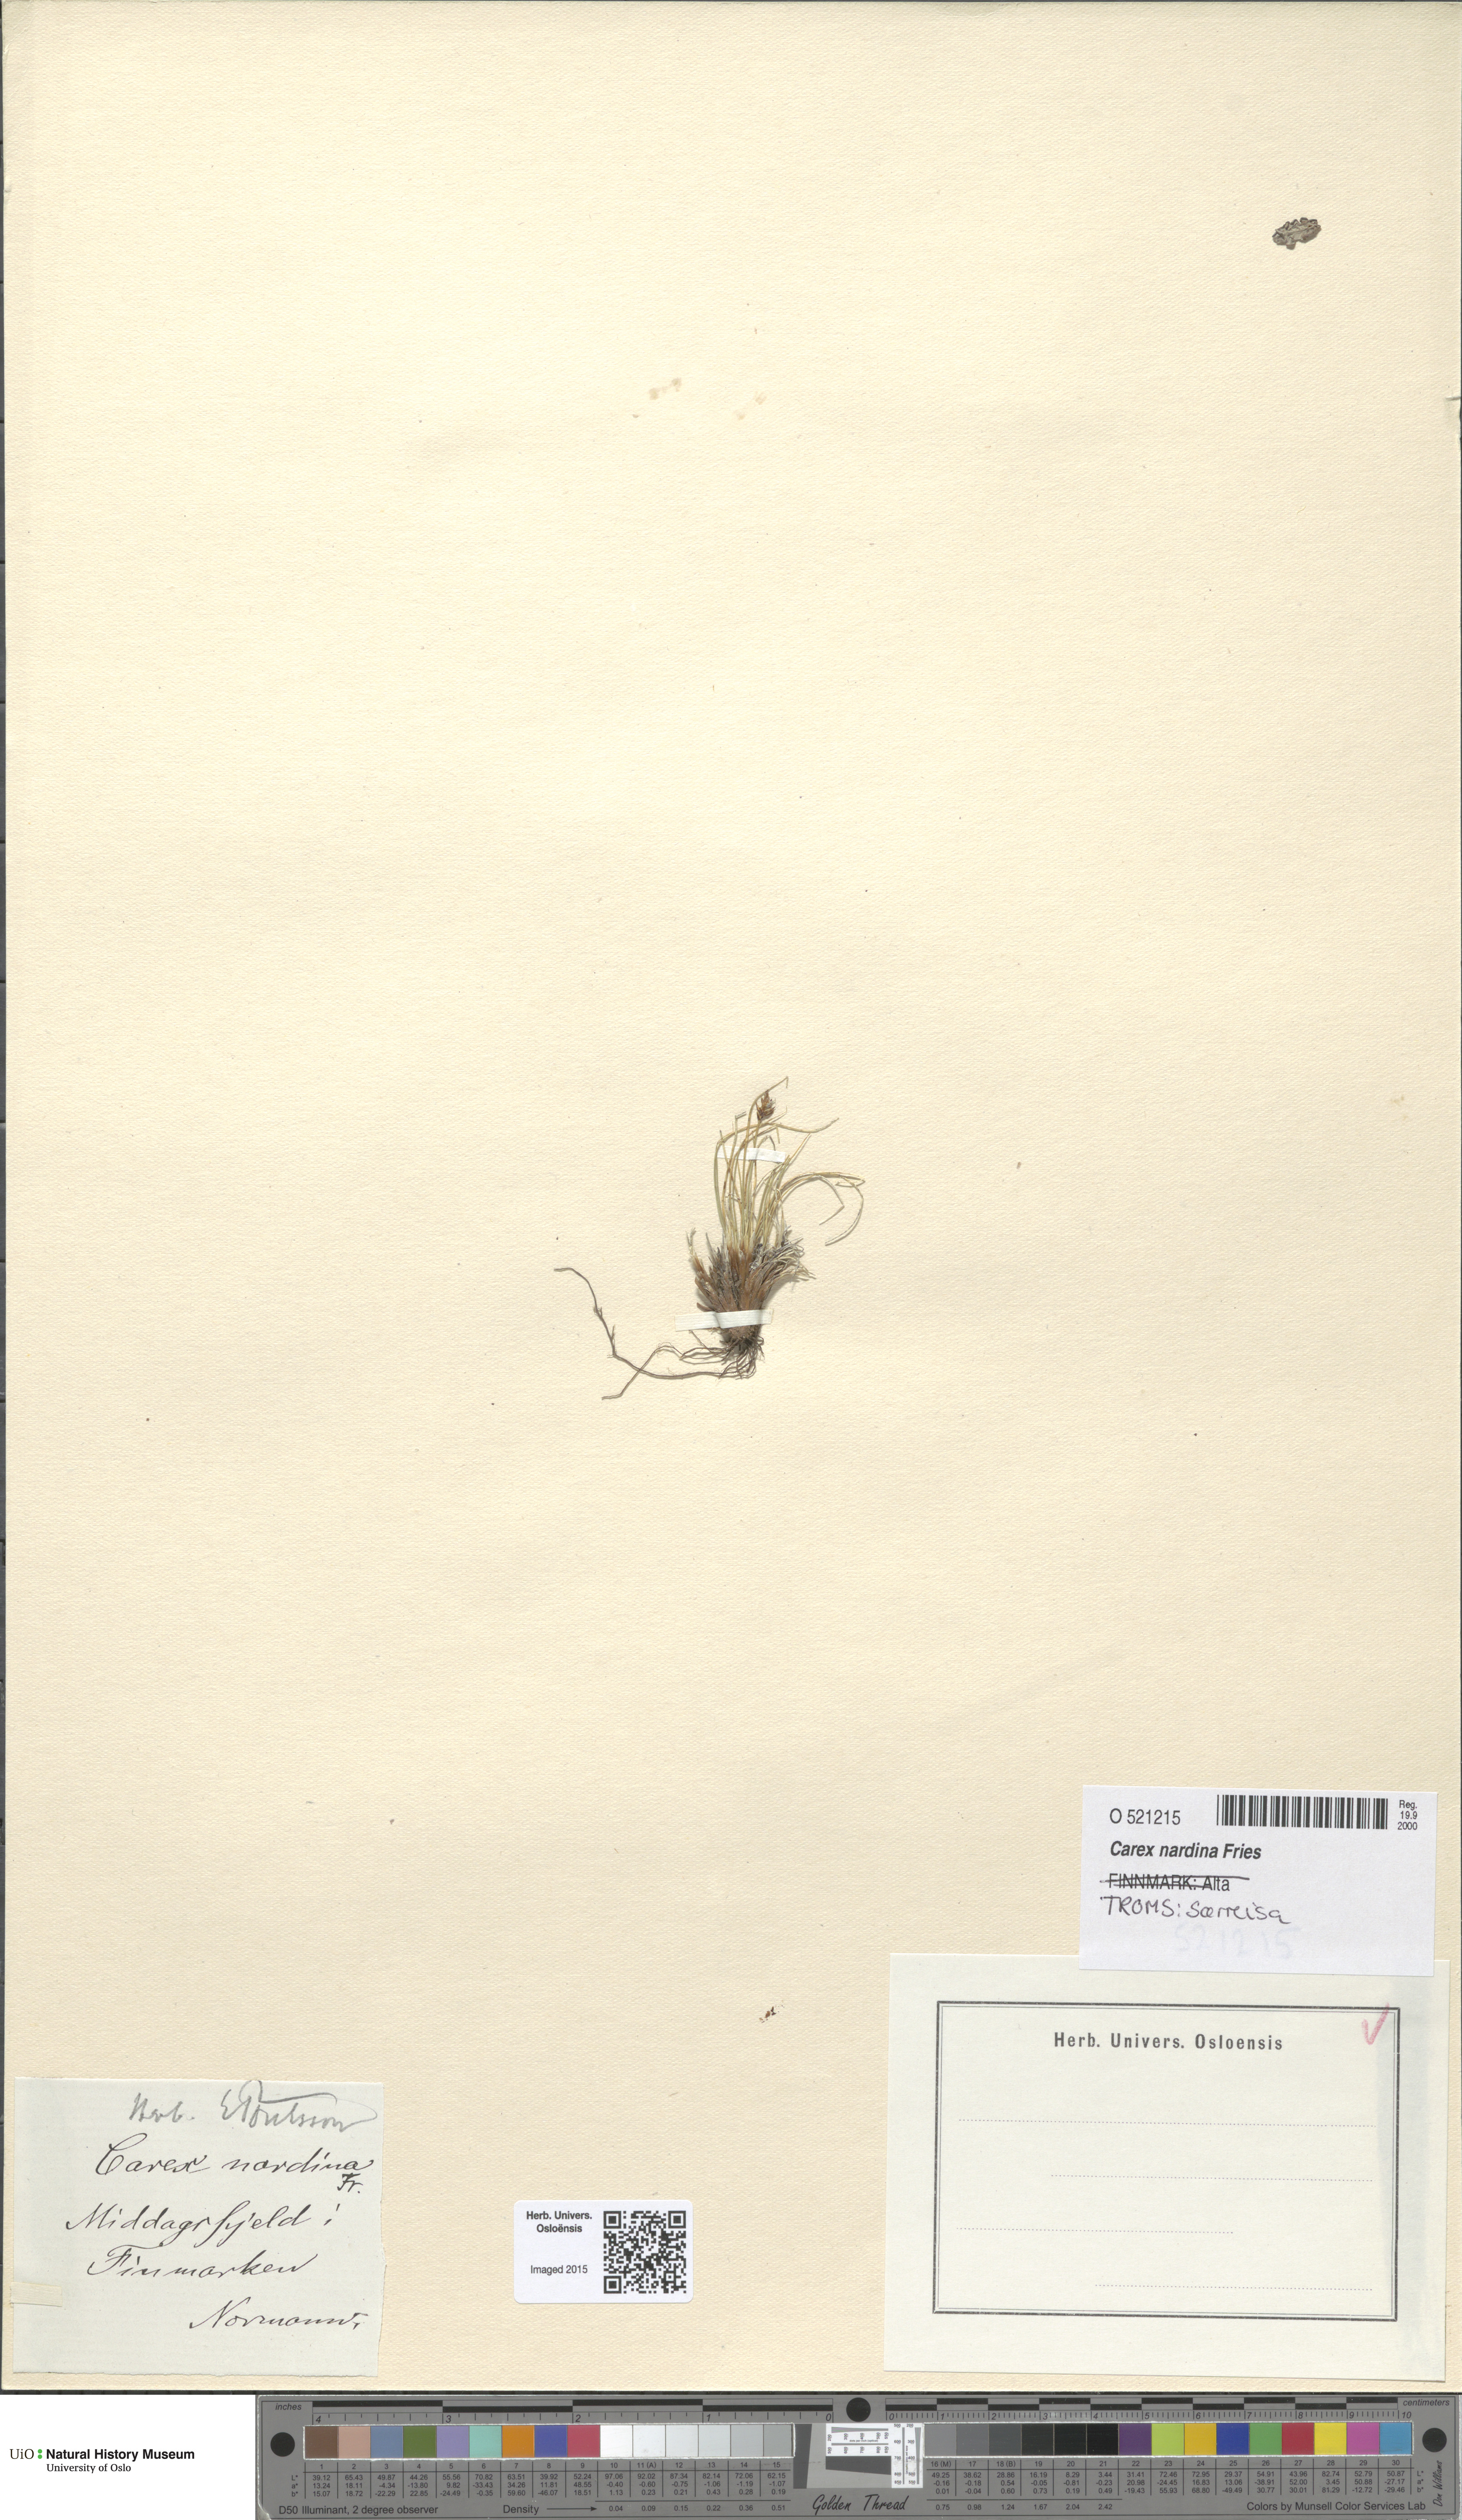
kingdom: Plantae
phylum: Tracheophyta
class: Liliopsida
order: Poales
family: Cyperaceae
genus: Carex
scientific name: Carex nardina
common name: Nard sedge
